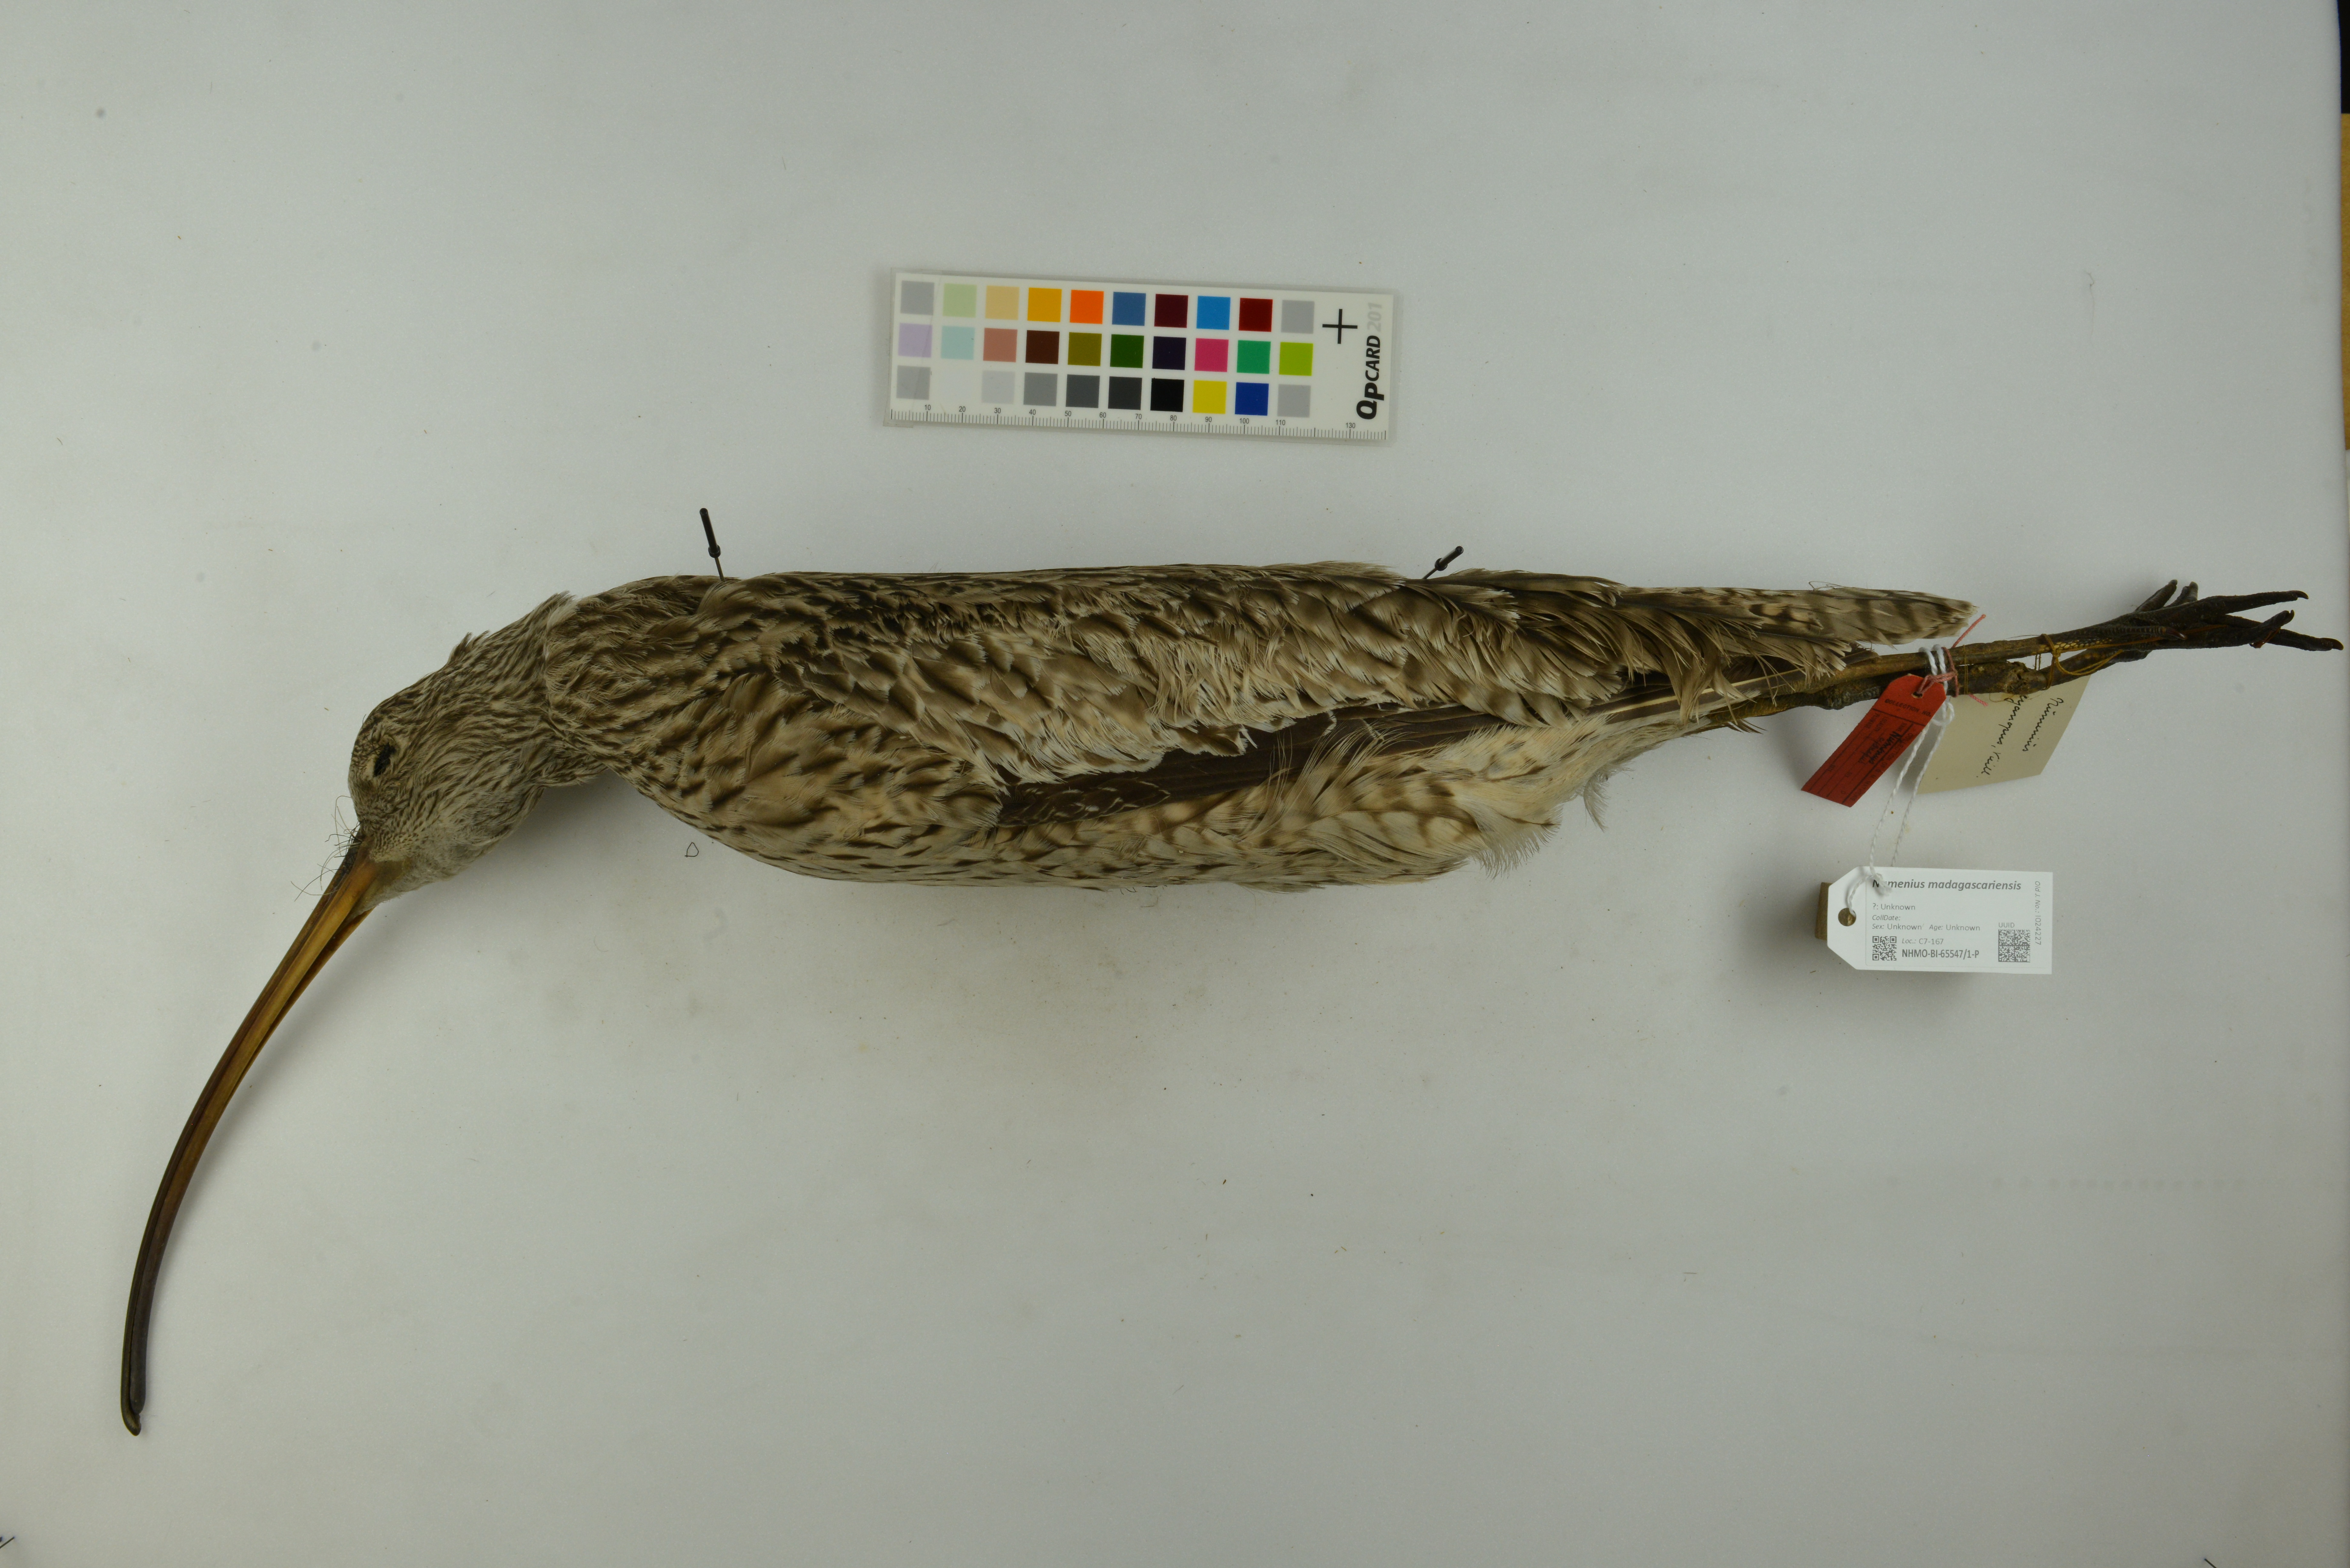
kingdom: Animalia
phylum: Chordata
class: Aves
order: Charadriiformes
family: Scolopacidae
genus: Numenius
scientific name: Numenius madagascariensis
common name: Far eastern curlew
